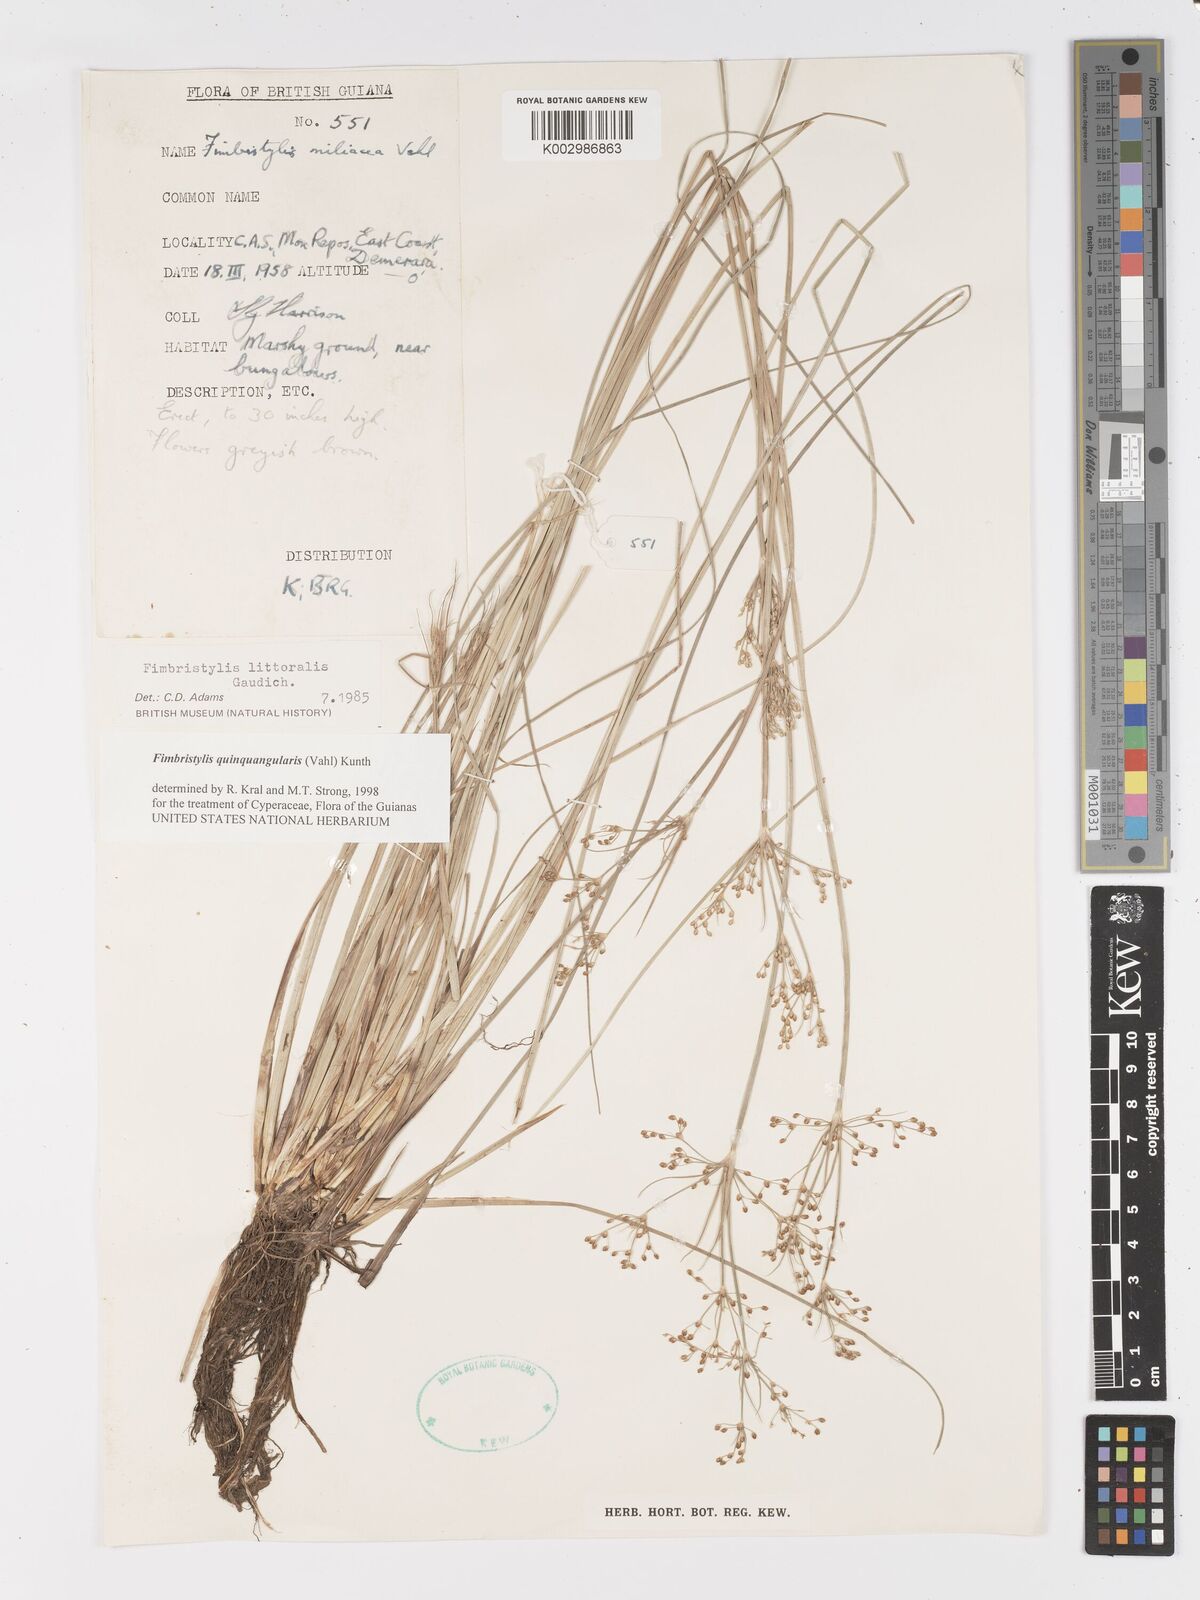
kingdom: Plantae
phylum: Tracheophyta
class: Liliopsida
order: Poales
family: Cyperaceae
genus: Fimbristylis
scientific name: Fimbristylis quinquangularis
